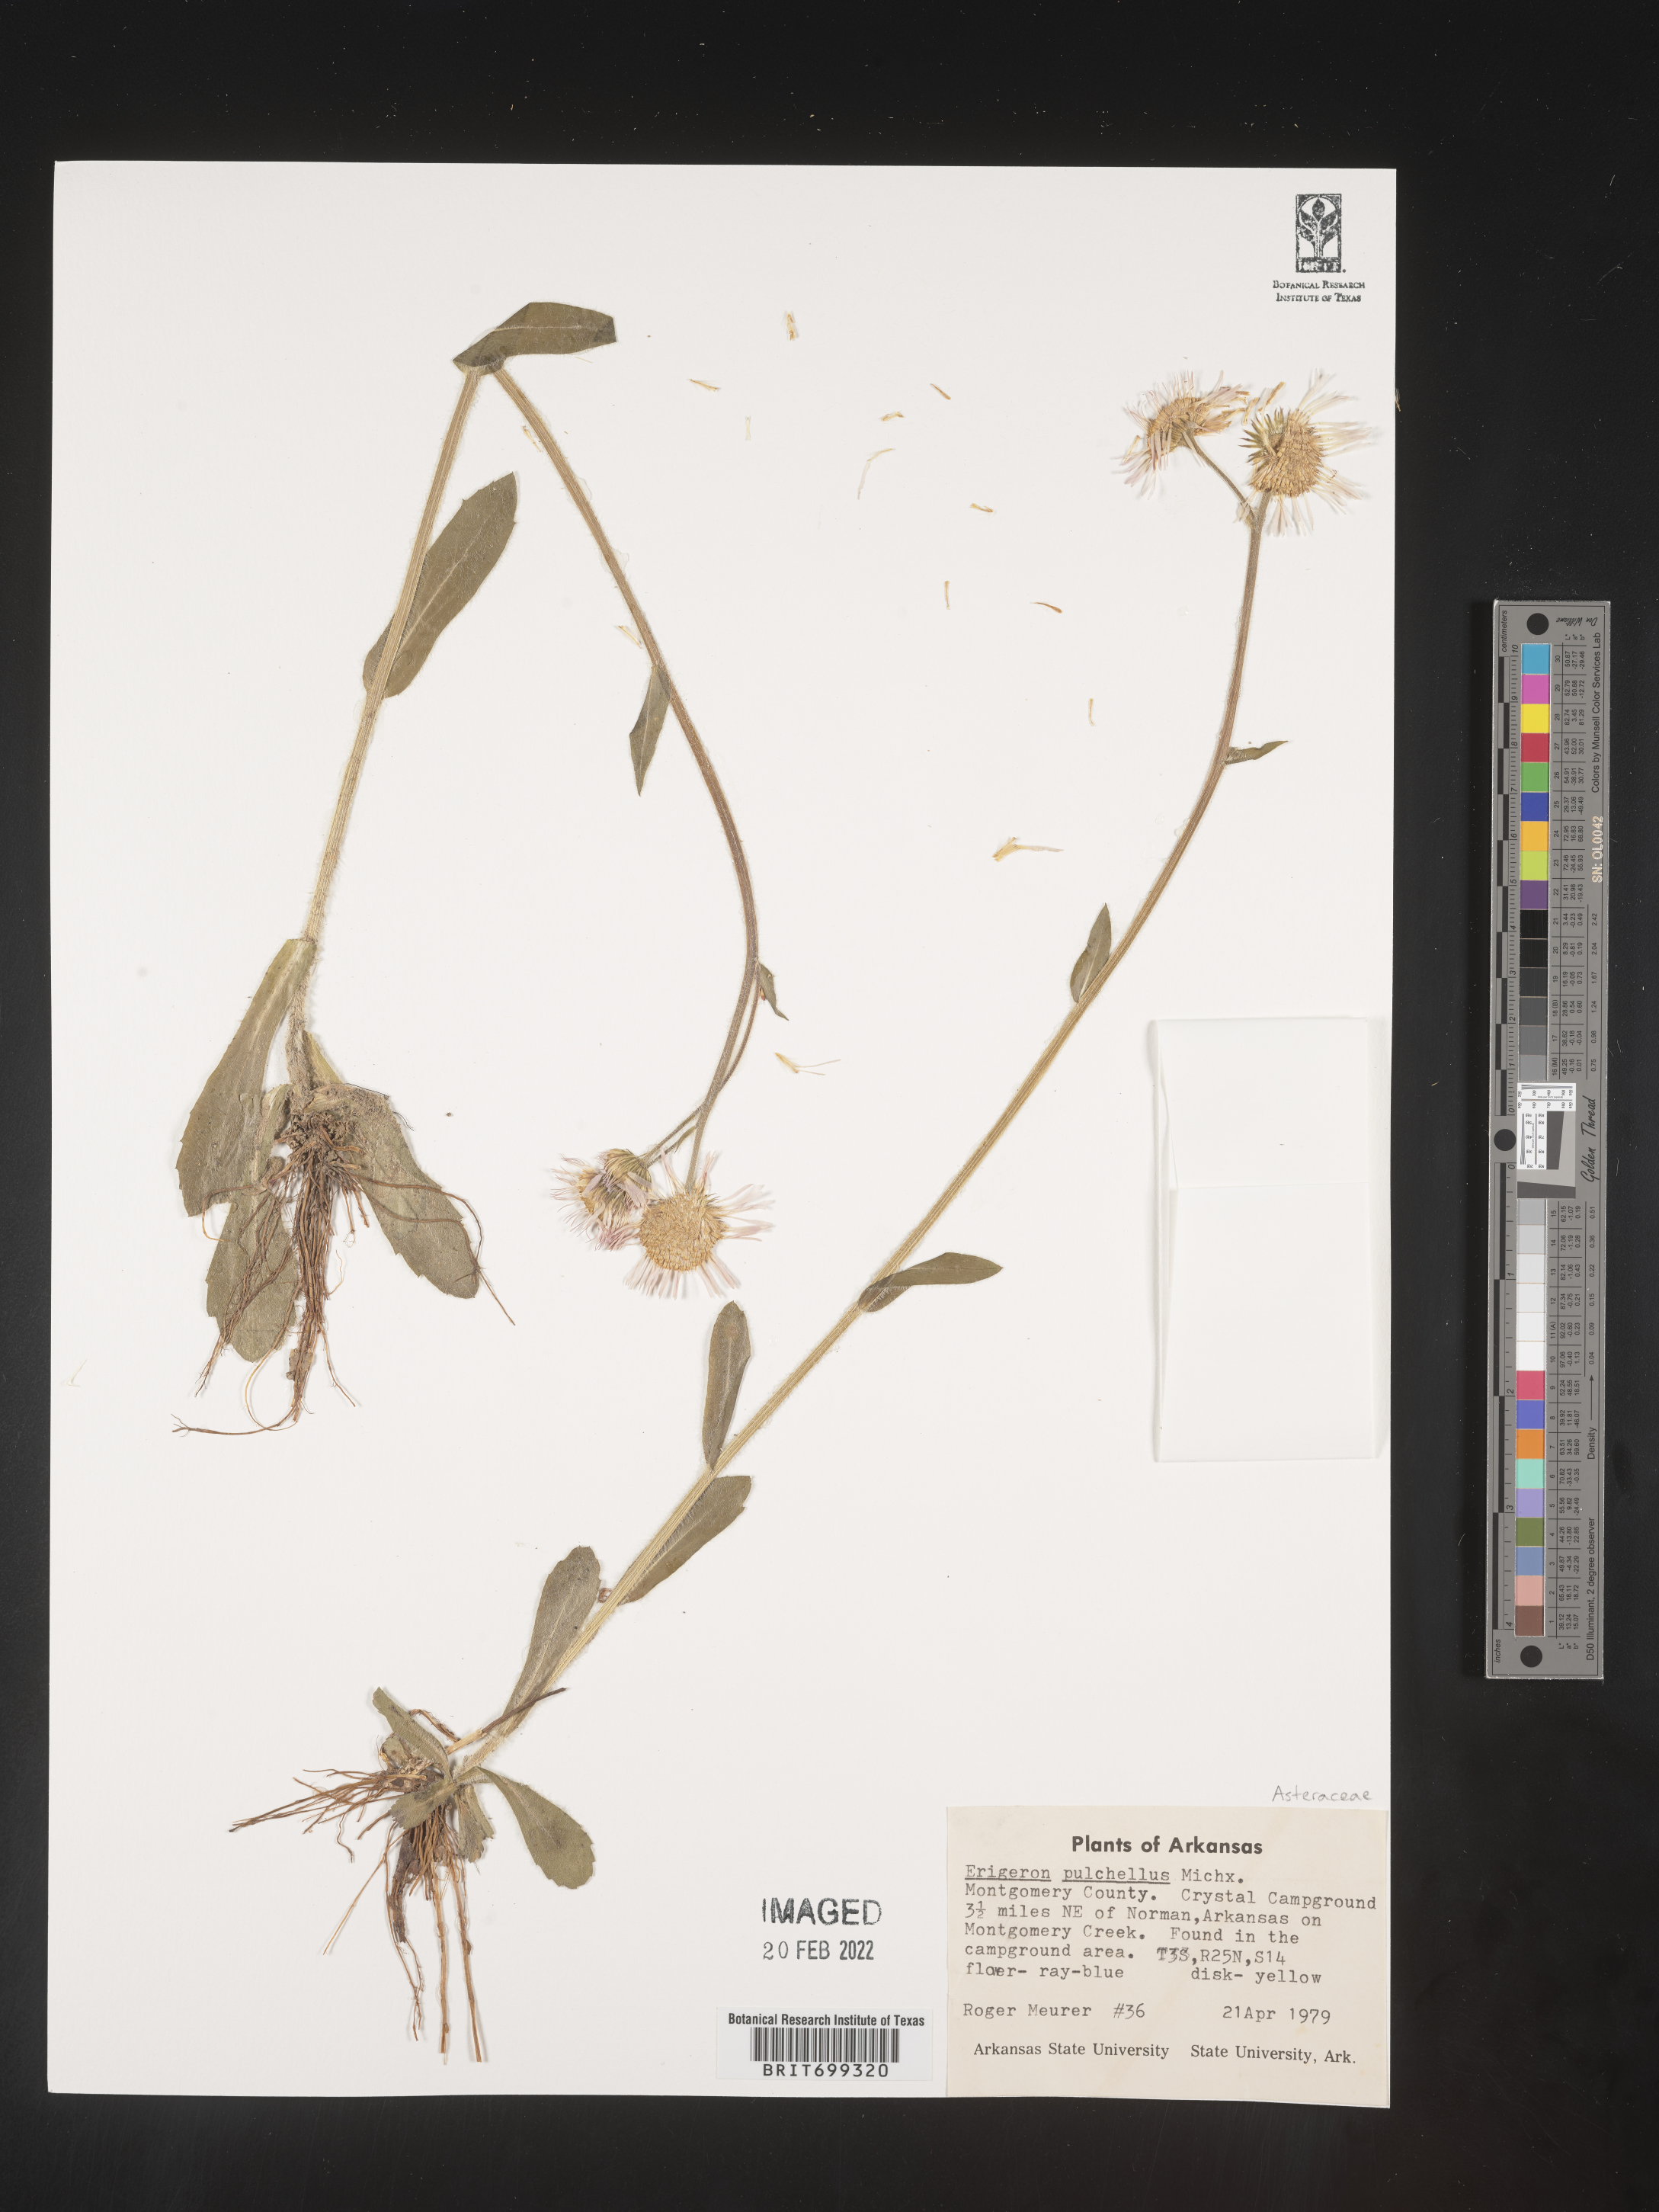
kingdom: Plantae
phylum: Tracheophyta
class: Magnoliopsida
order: Asterales
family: Asteraceae
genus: Erigeron
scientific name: Erigeron pulchellus
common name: Hairy fleabane
